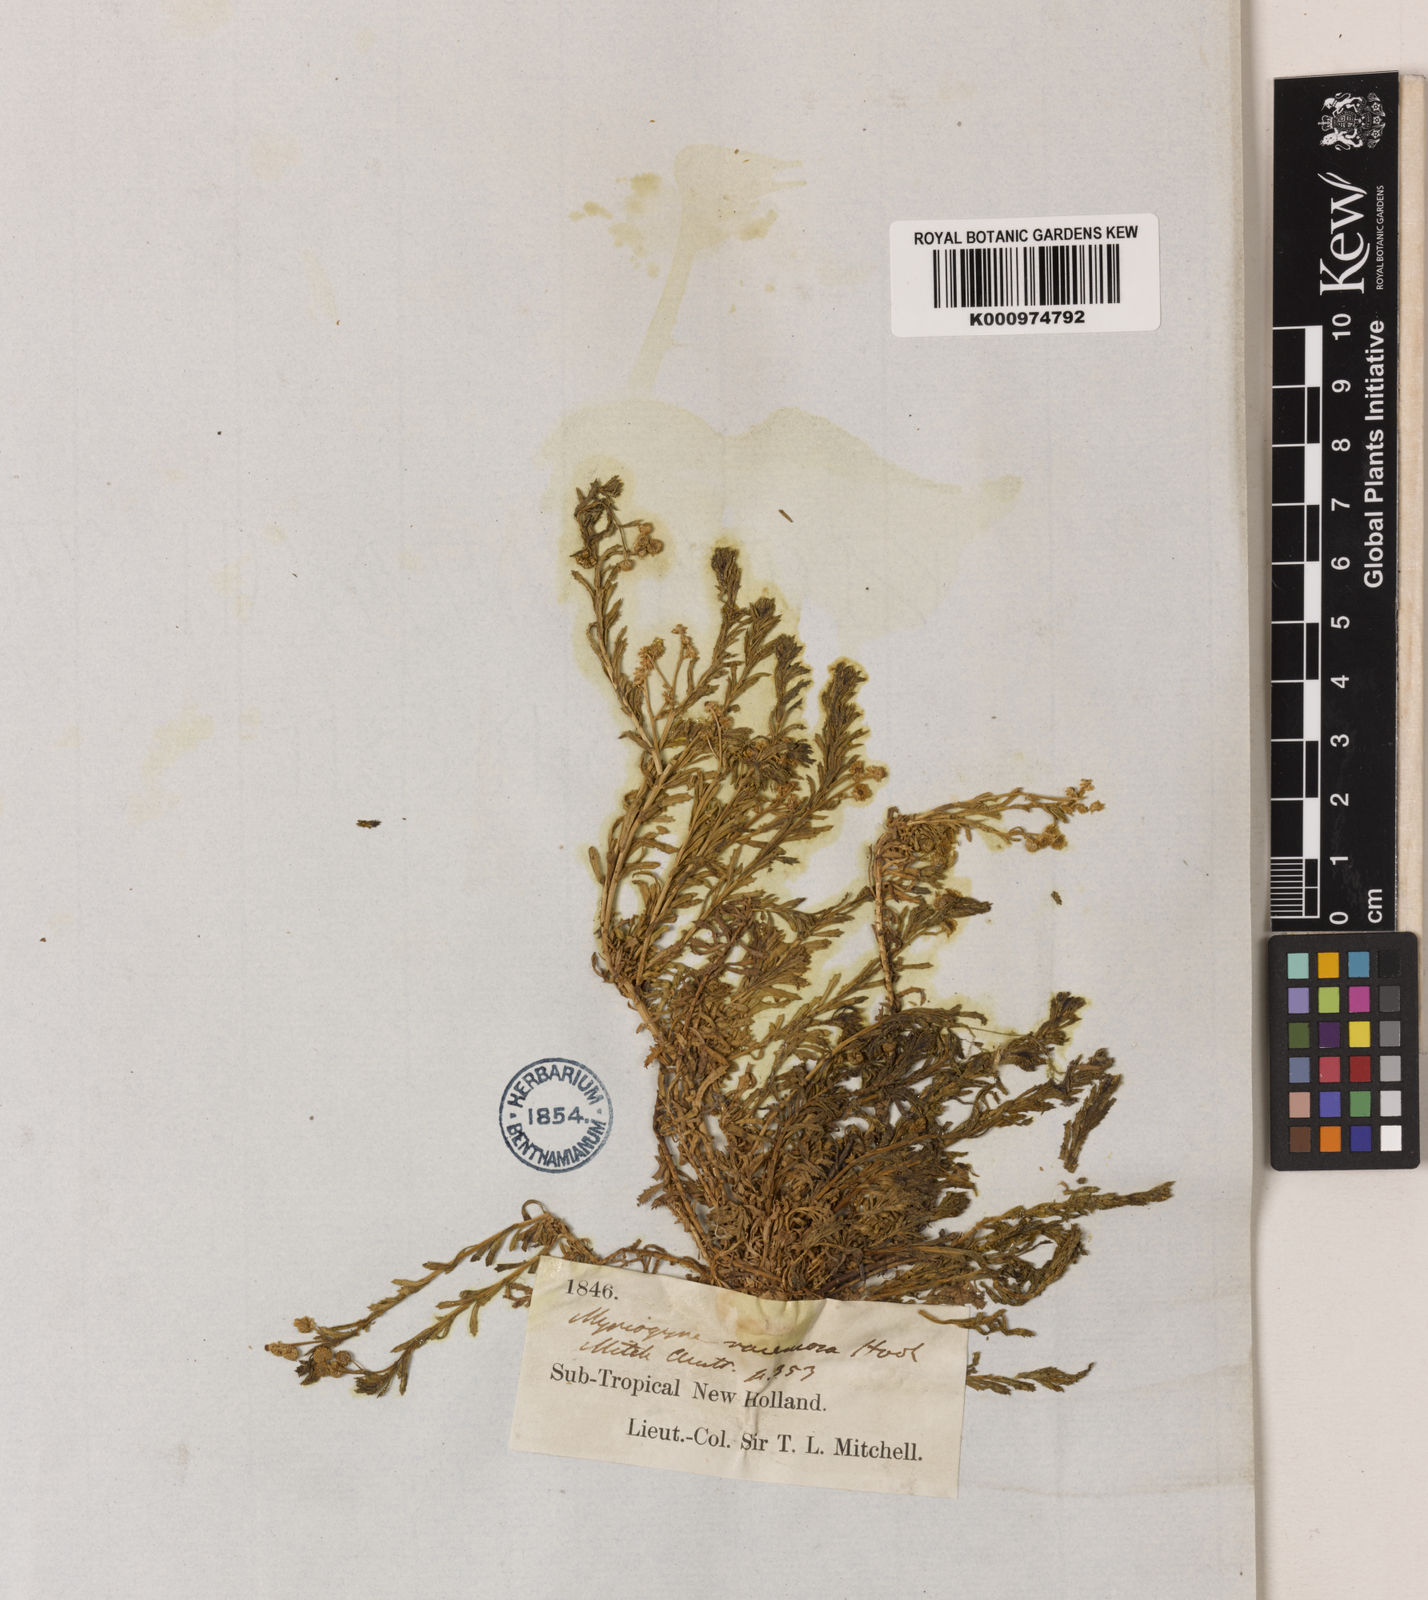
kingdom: Plantae
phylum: Tracheophyta
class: Magnoliopsida
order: Asterales
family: Asteraceae
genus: Centipeda
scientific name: Centipeda racemosa
